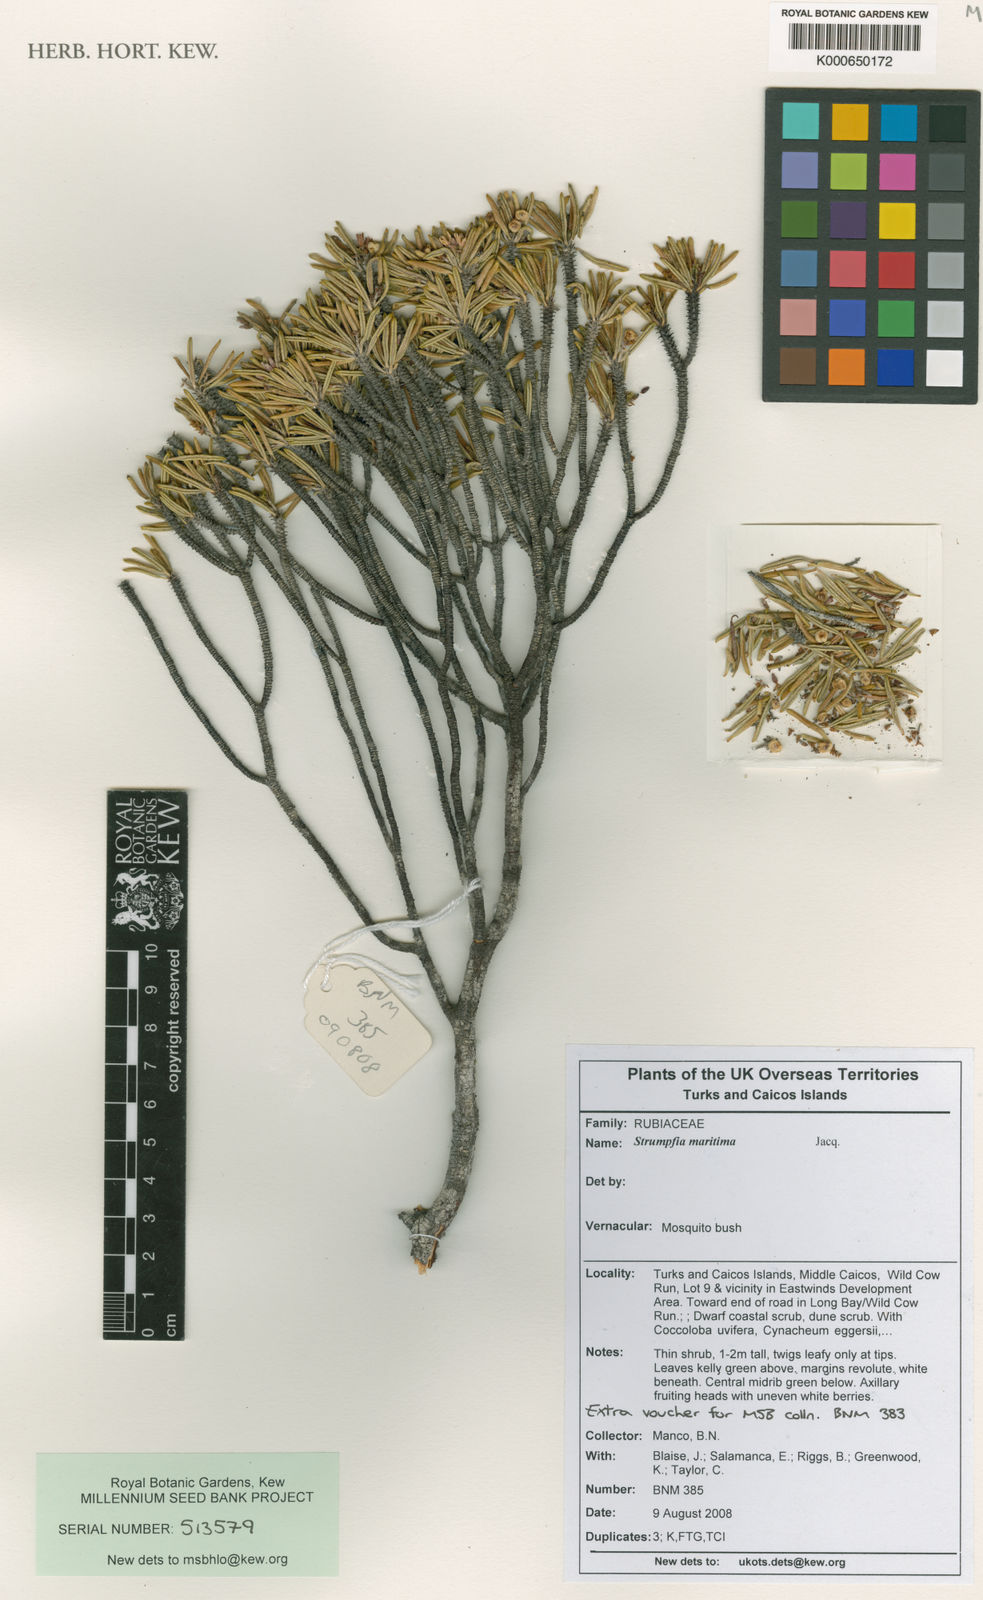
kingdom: Plantae
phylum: Tracheophyta
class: Magnoliopsida
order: Gentianales
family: Rubiaceae
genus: Strumpfia
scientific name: Strumpfia maritima
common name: Pride-of-big pine
